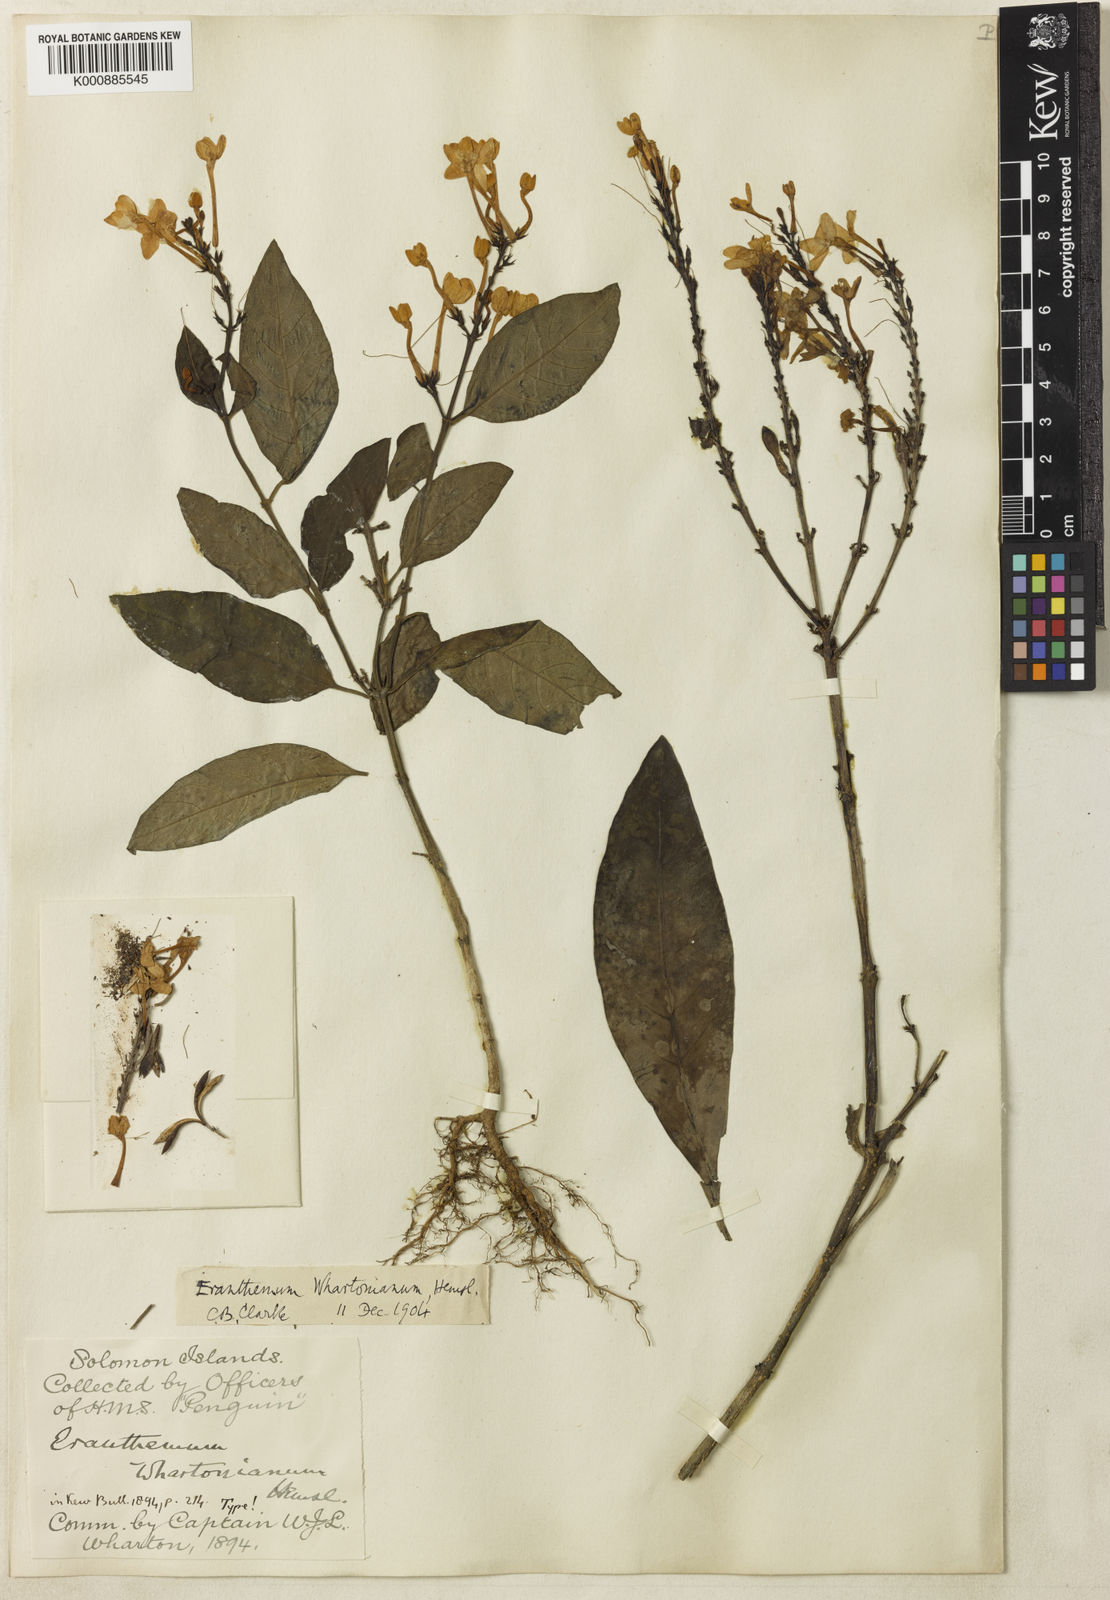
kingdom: Plantae
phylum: Tracheophyta
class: Magnoliopsida
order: Lamiales
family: Acanthaceae
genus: Pseuderanthemum
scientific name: Pseuderanthemum
